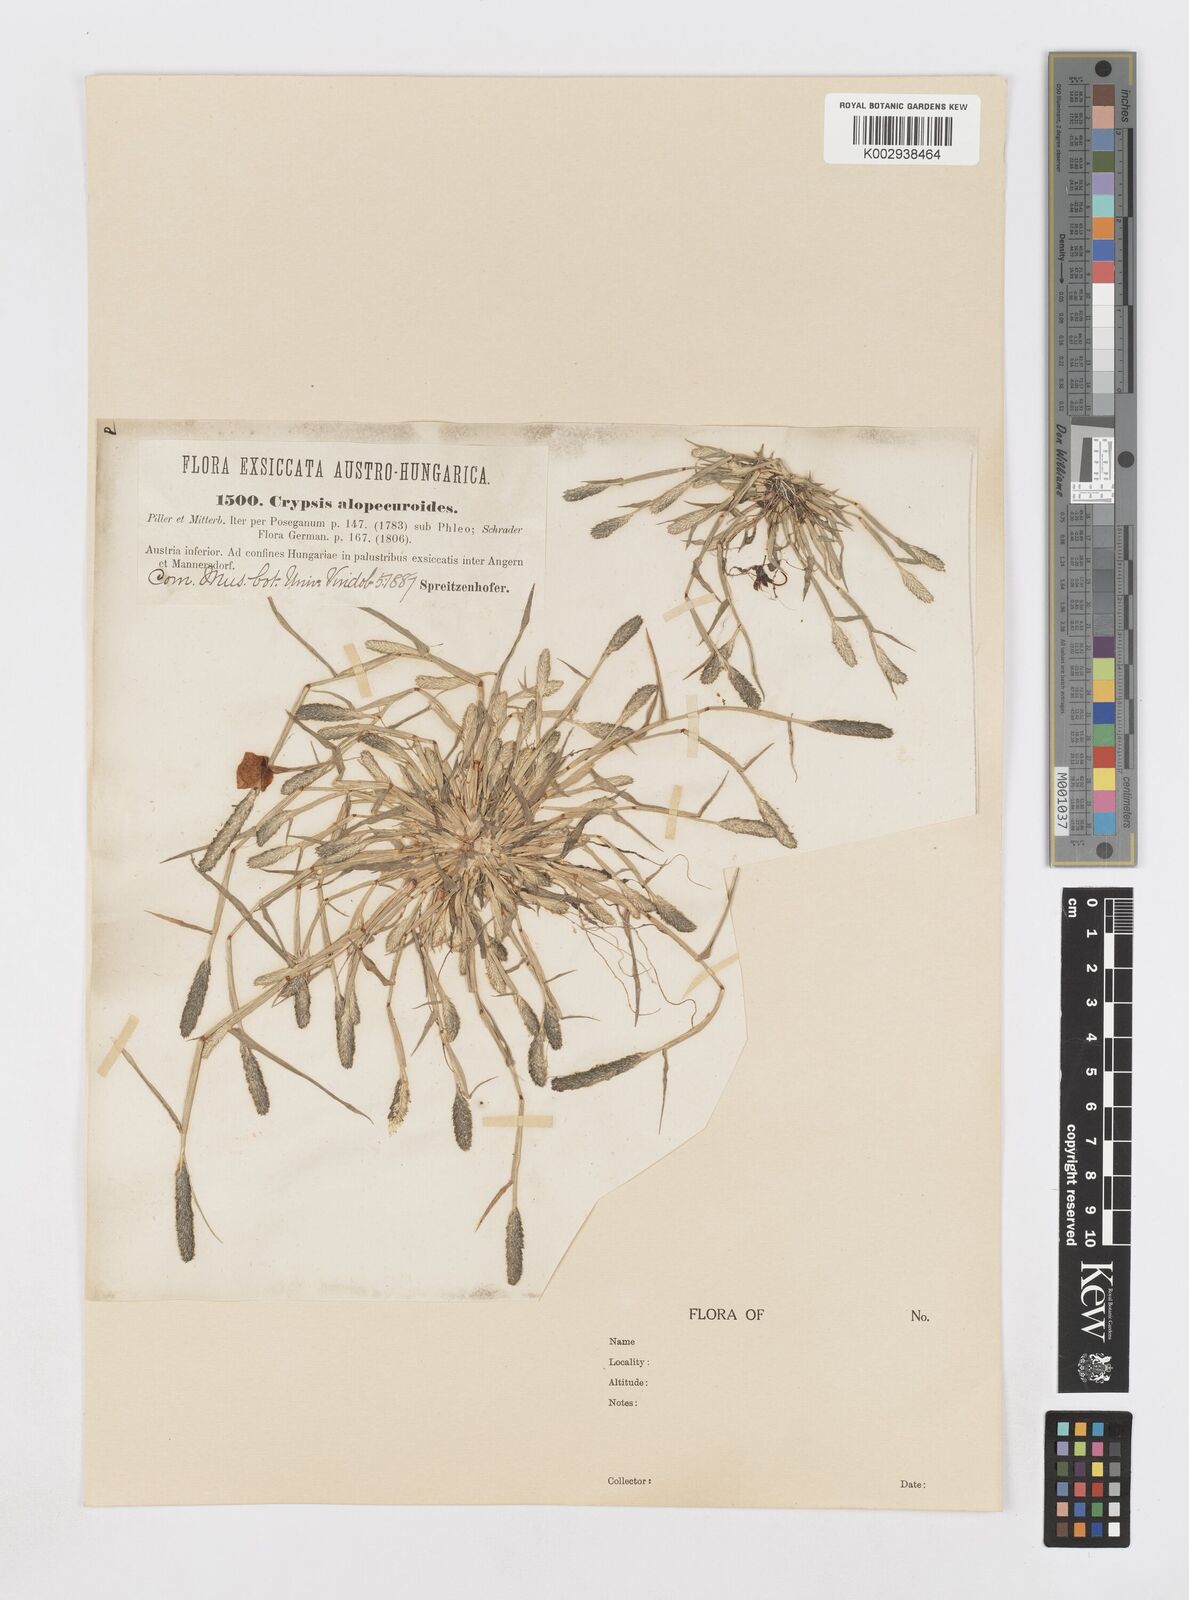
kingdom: Plantae
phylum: Tracheophyta
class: Liliopsida
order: Poales
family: Poaceae
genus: Sporobolus
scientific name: Sporobolus alopecuroides
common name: Foxtail pricklegrass
